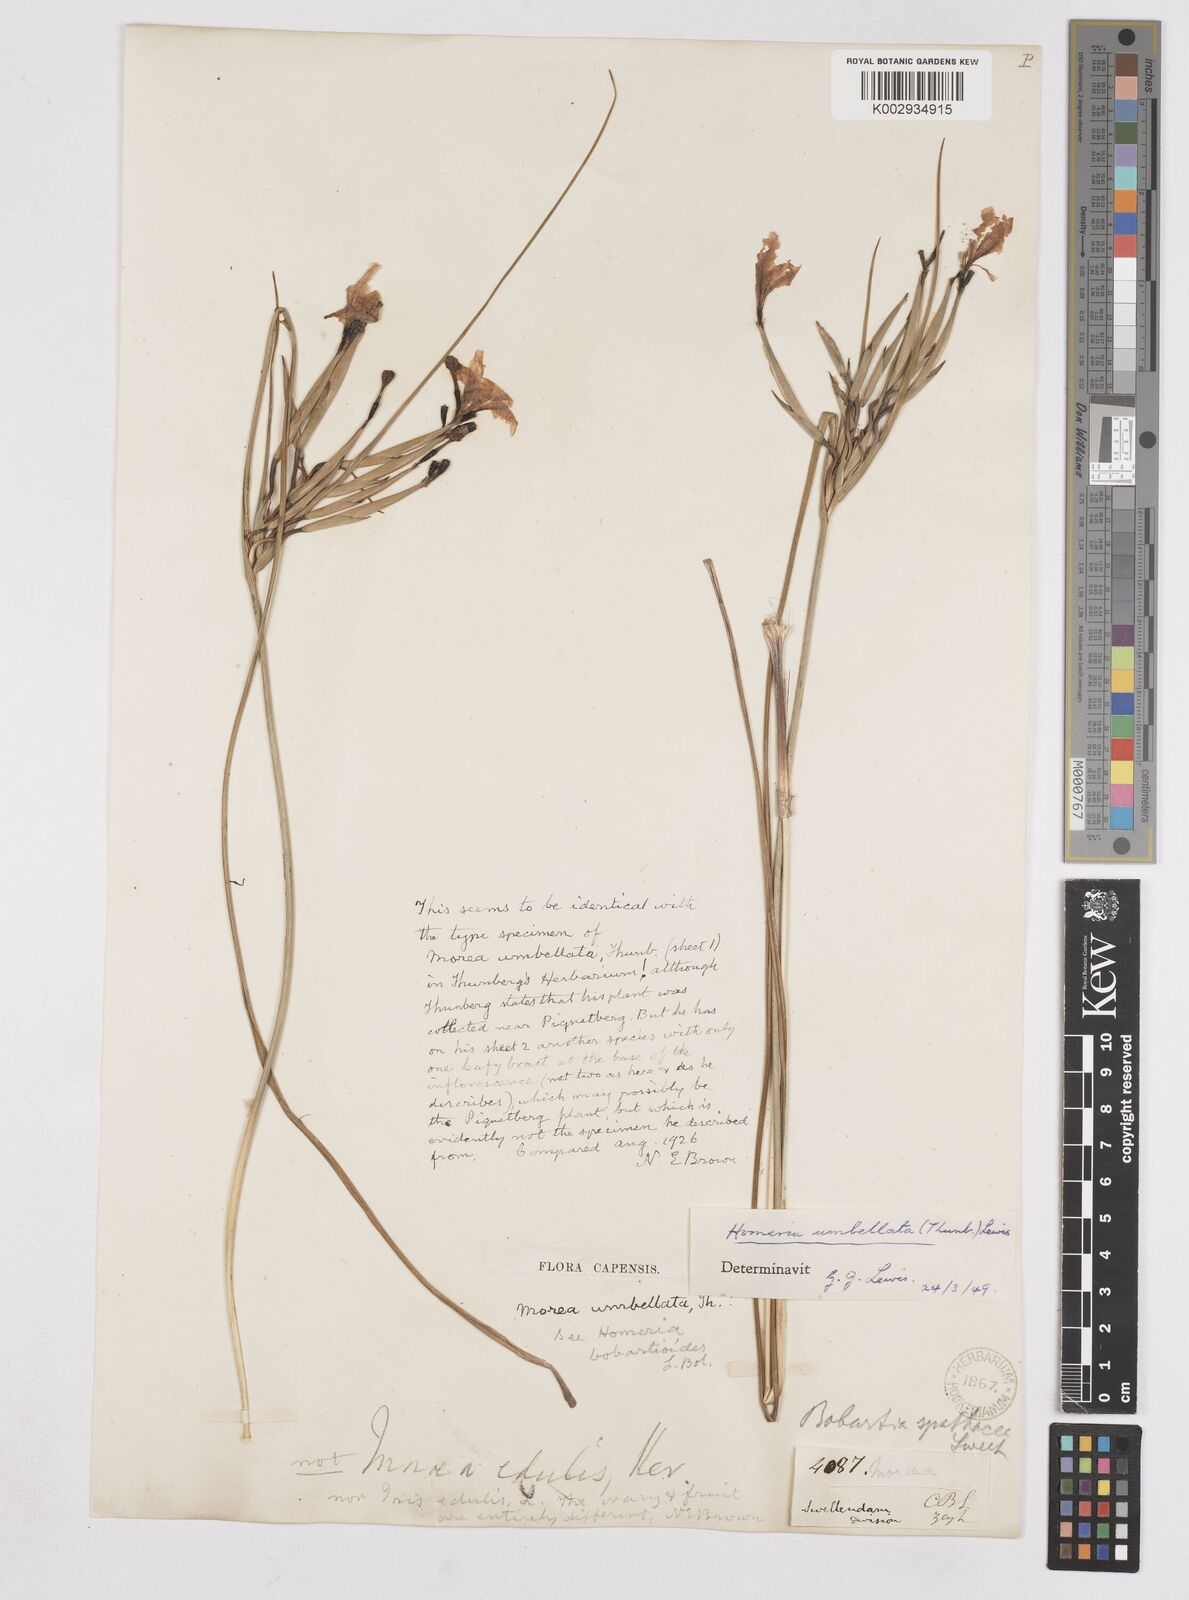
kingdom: Plantae
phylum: Tracheophyta
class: Liliopsida
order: Asparagales
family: Iridaceae
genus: Moraea
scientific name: Moraea umbellata
